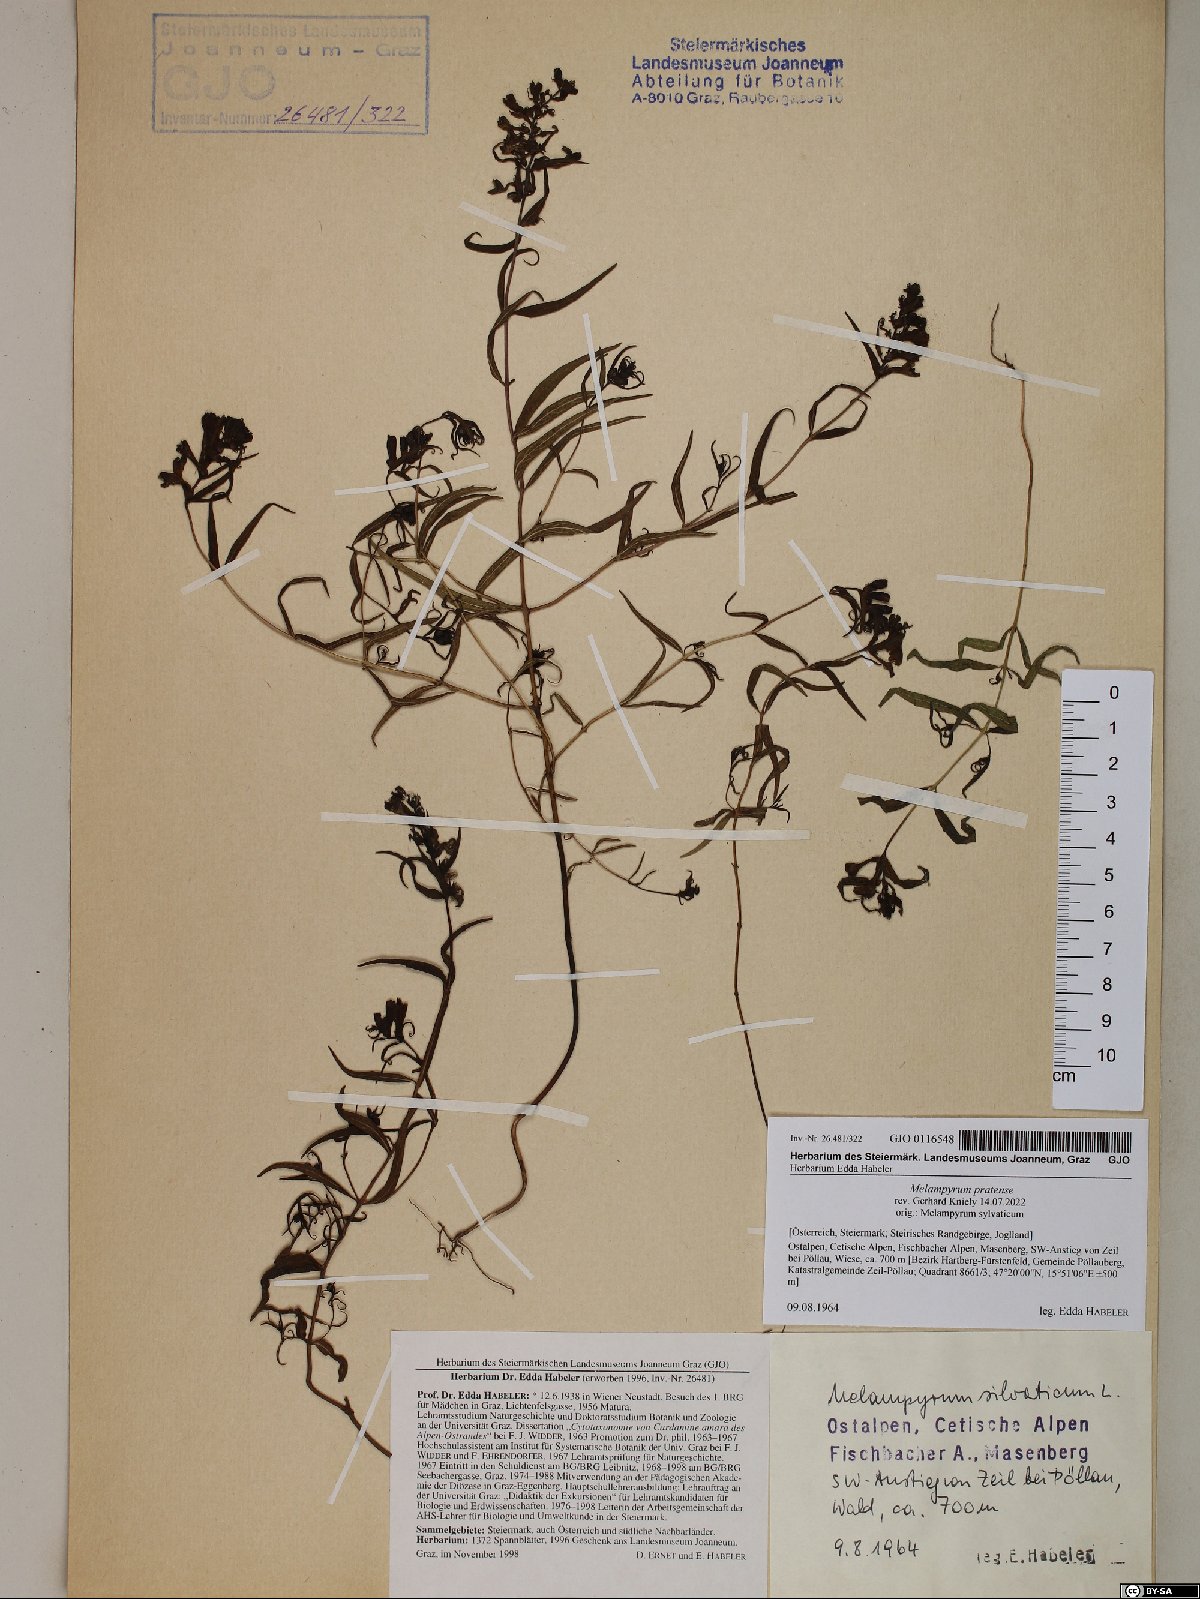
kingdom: Plantae
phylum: Tracheophyta
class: Magnoliopsida
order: Lamiales
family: Orobanchaceae
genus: Melampyrum
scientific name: Melampyrum pratense
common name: Common cow-wheat
